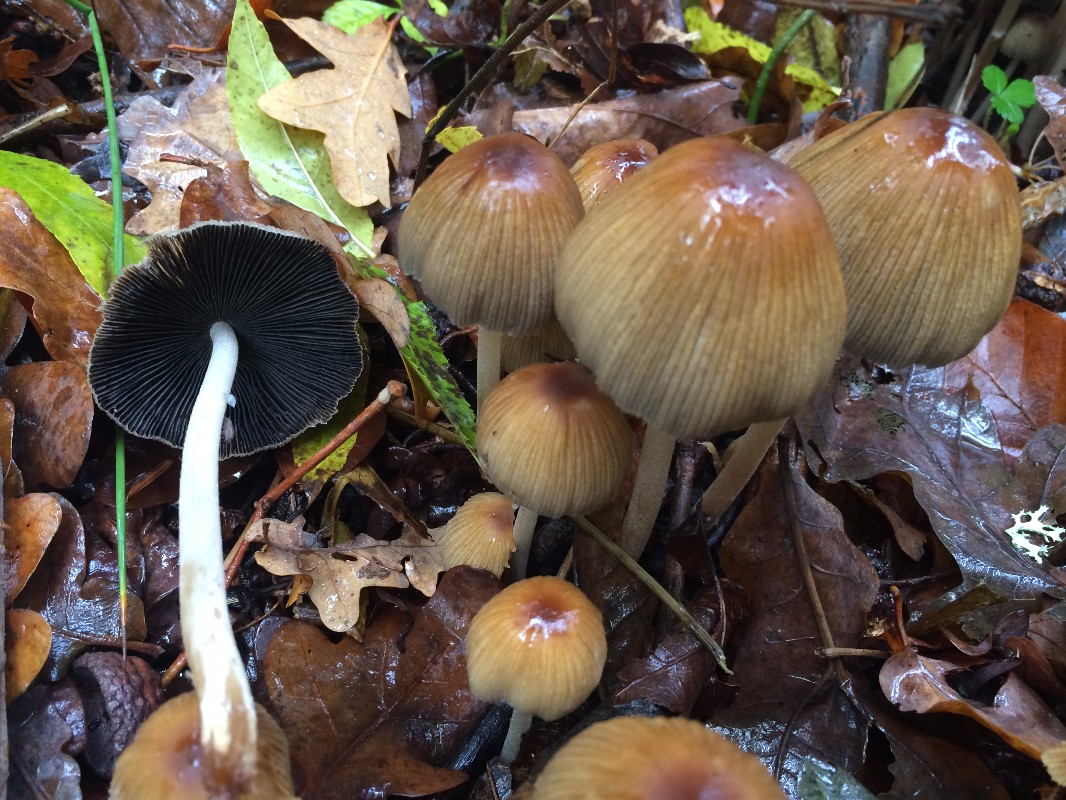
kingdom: Fungi
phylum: Basidiomycota
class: Agaricomycetes
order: Agaricales
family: Psathyrellaceae
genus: Coprinellus
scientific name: Coprinellus micaceus
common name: glimmer-blækhat
